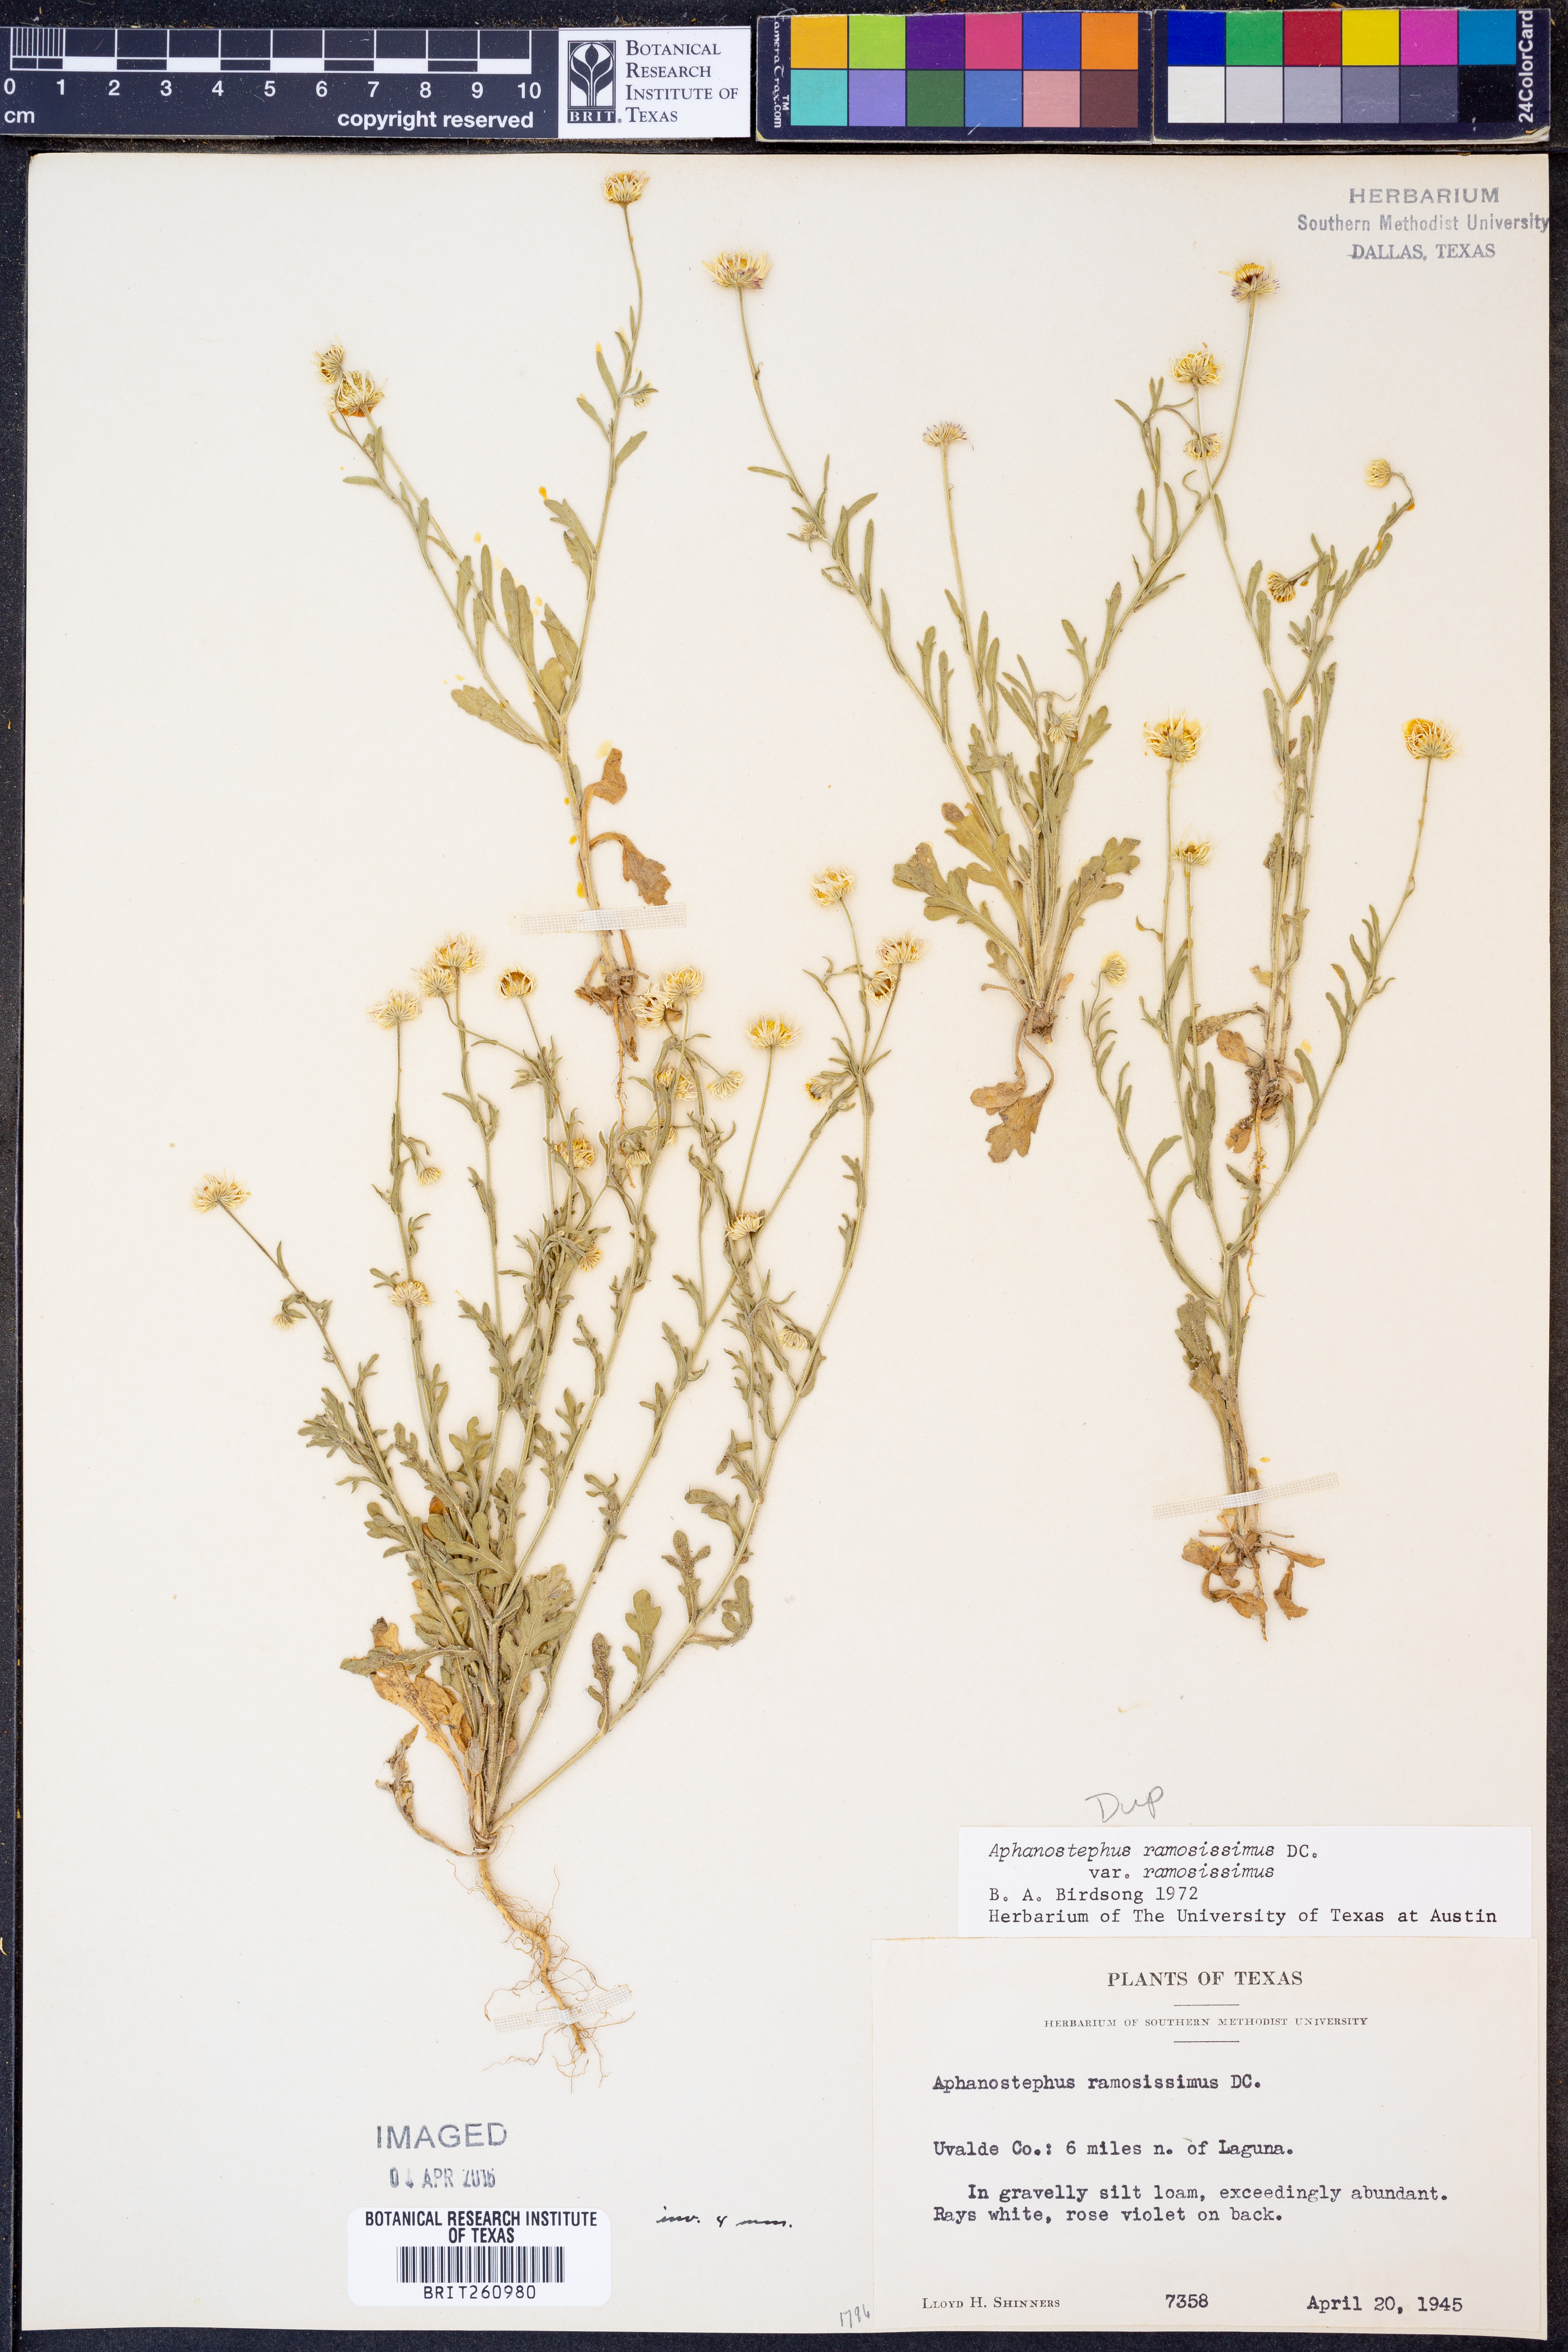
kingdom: Plantae
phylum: Tracheophyta
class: Magnoliopsida
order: Asterales
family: Asteraceae
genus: Aphanostephus
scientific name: Aphanostephus ramosissimus
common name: Plains lazy daisy
